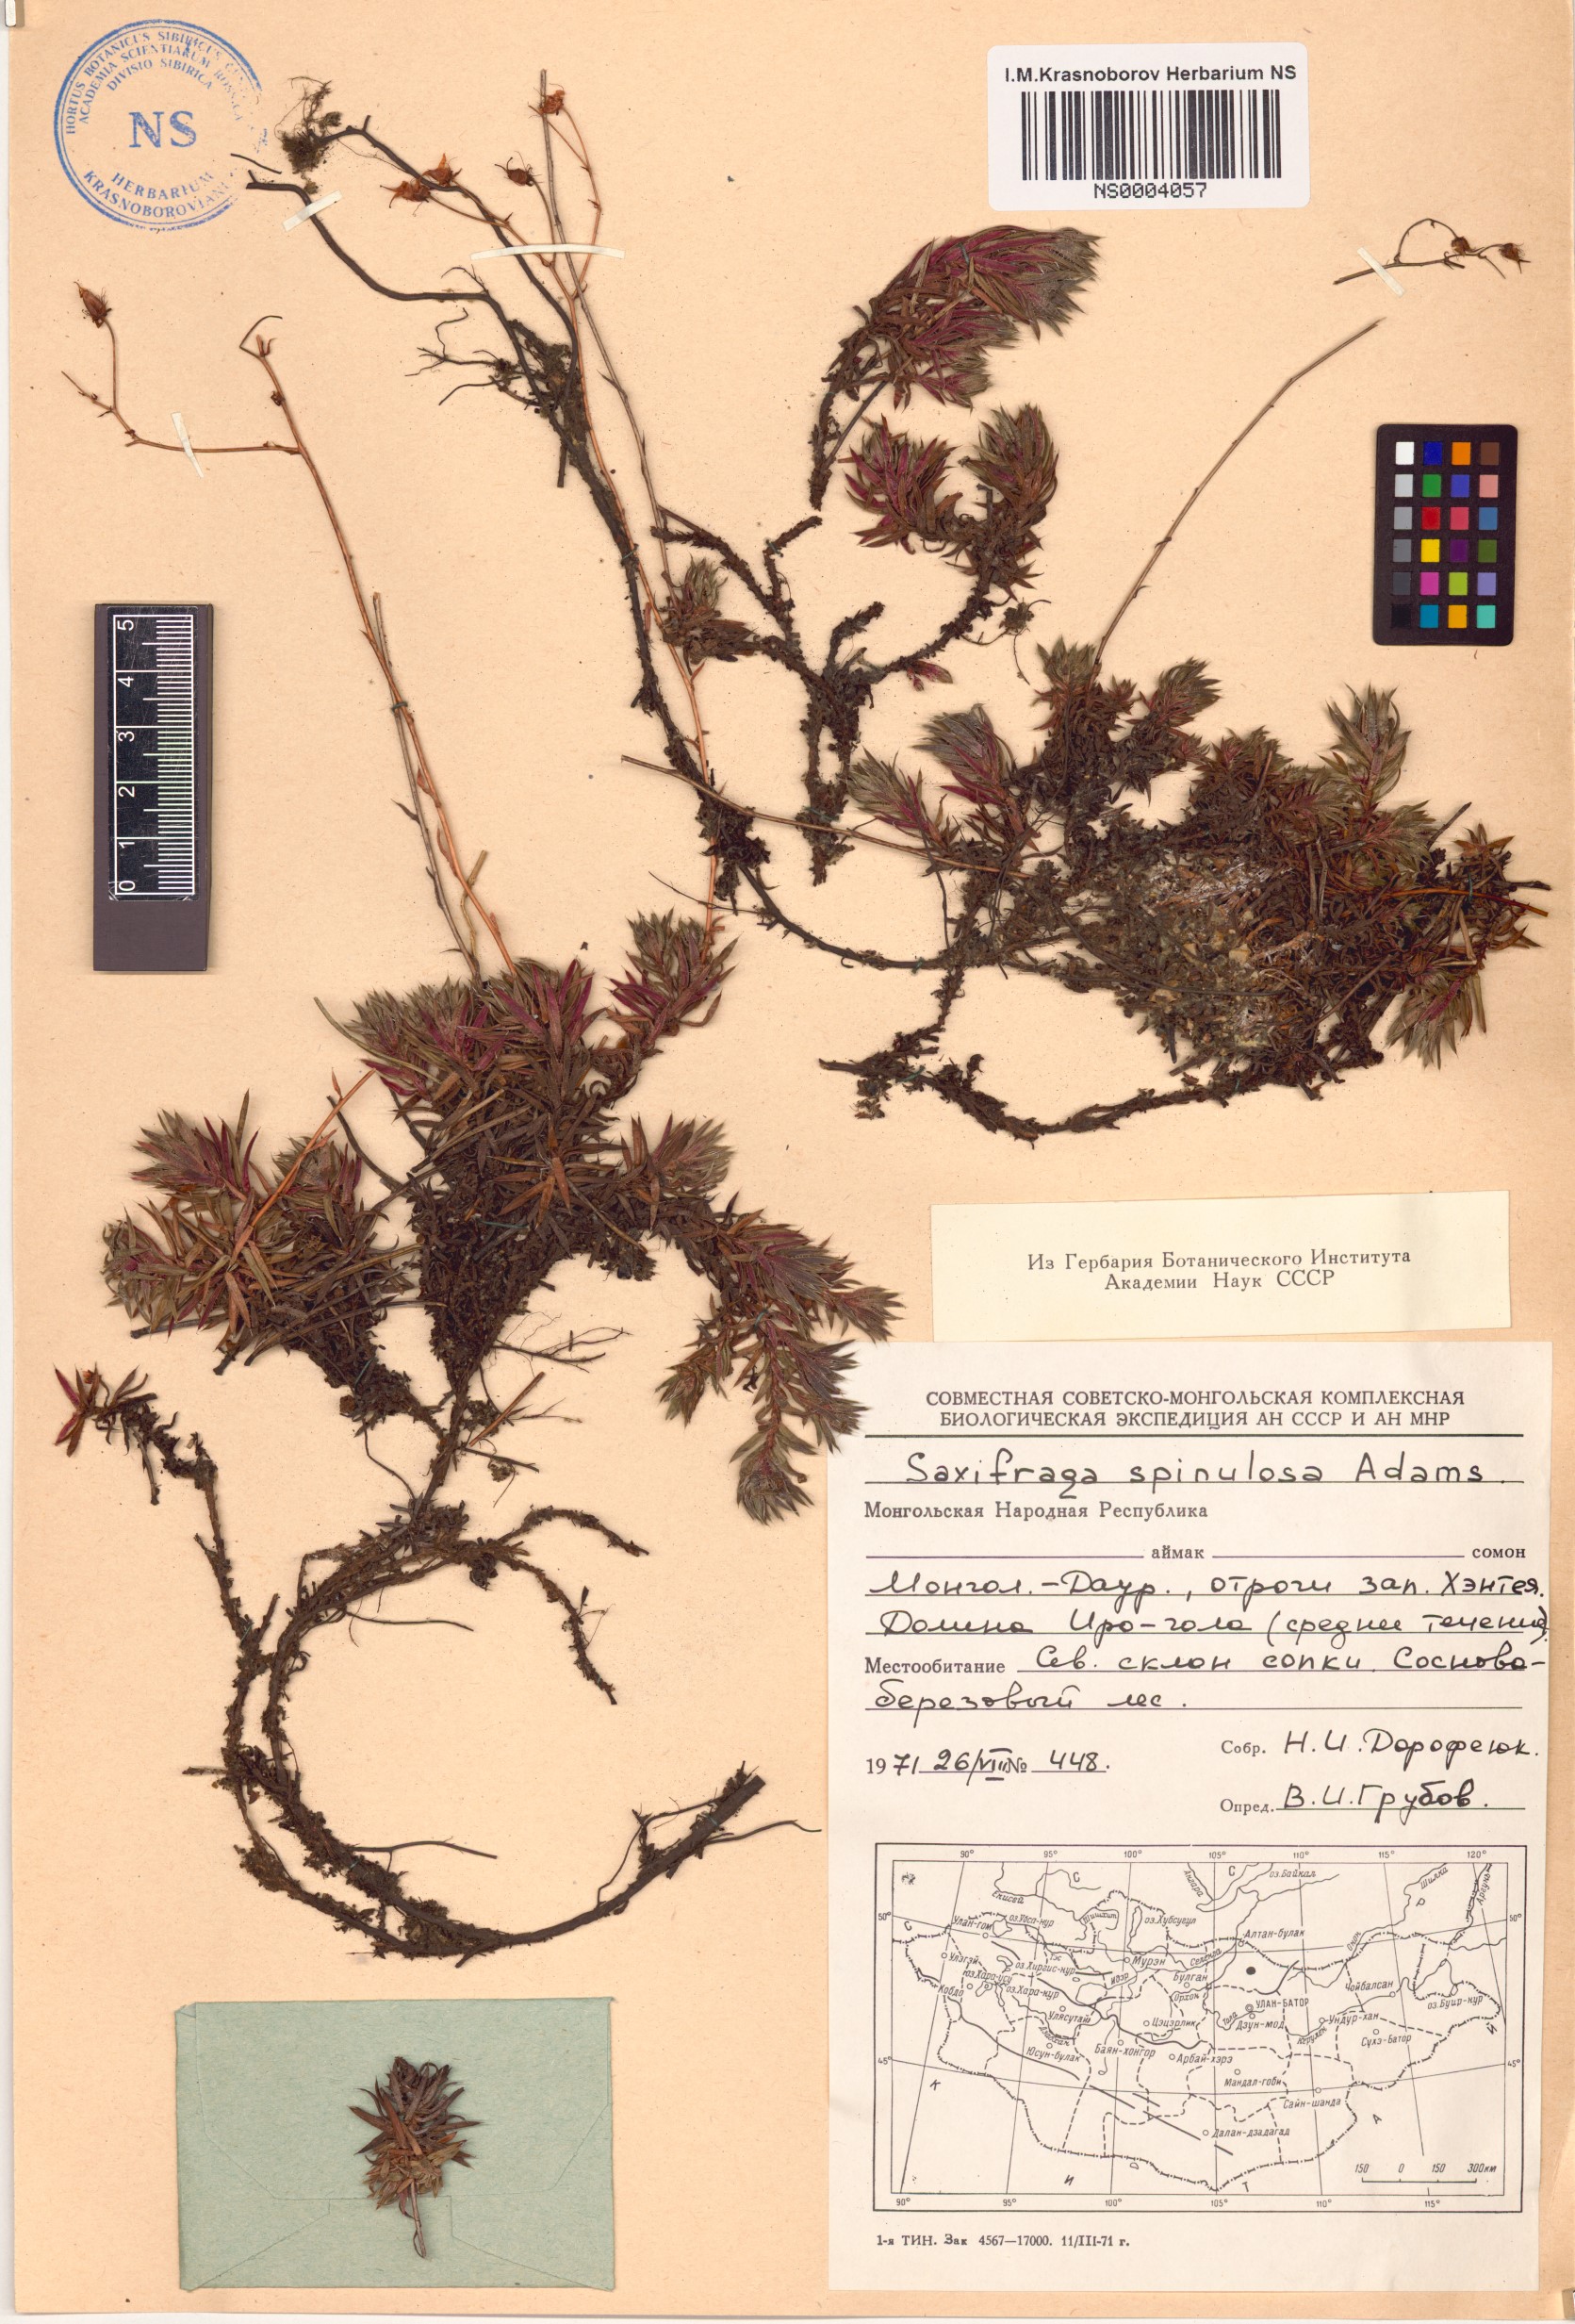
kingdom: Plantae
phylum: Tracheophyta
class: Magnoliopsida
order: Saxifragales
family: Saxifragaceae
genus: Saxifraga
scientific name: Saxifraga bronchialis
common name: Matted saxifrage
